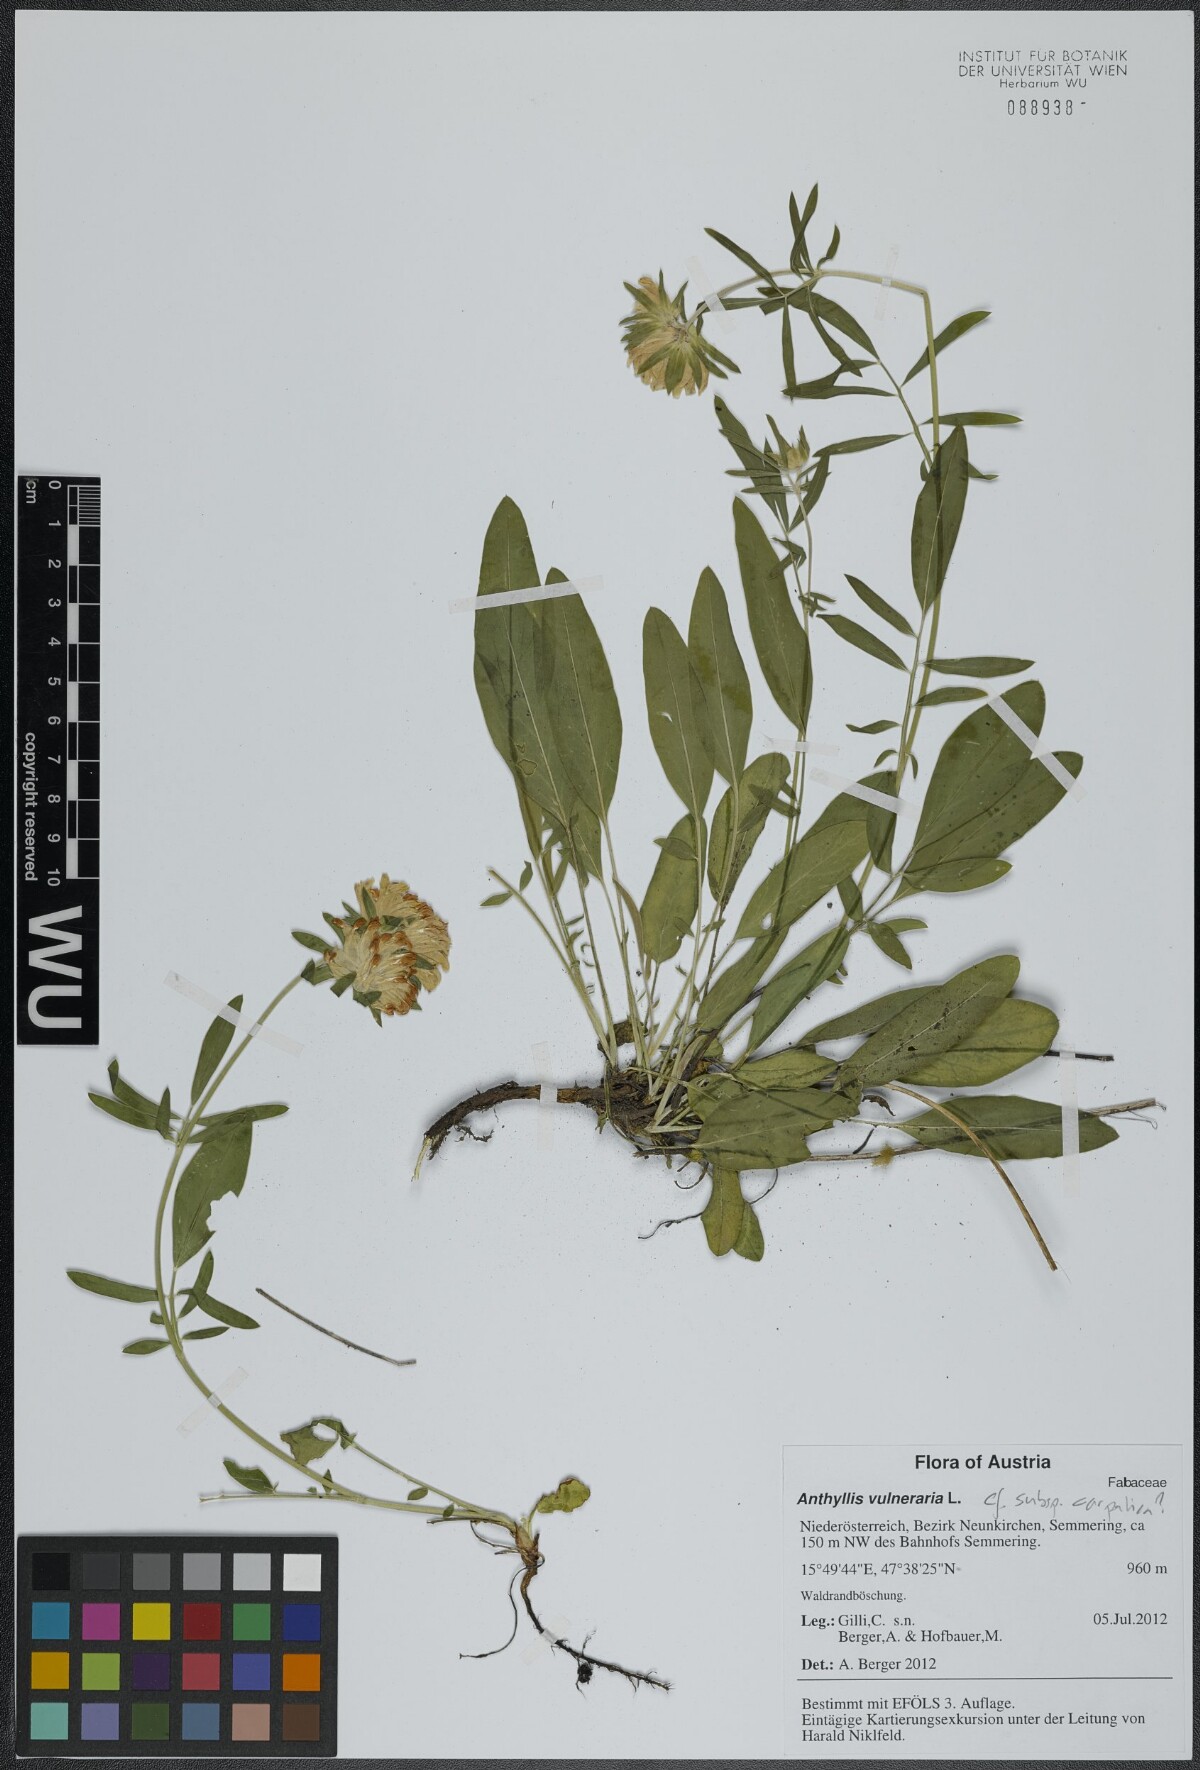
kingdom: Plantae
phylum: Tracheophyta
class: Magnoliopsida
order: Fabales
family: Fabaceae
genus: Anthyllis
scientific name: Anthyllis vulneraria
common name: Kidney vetch
